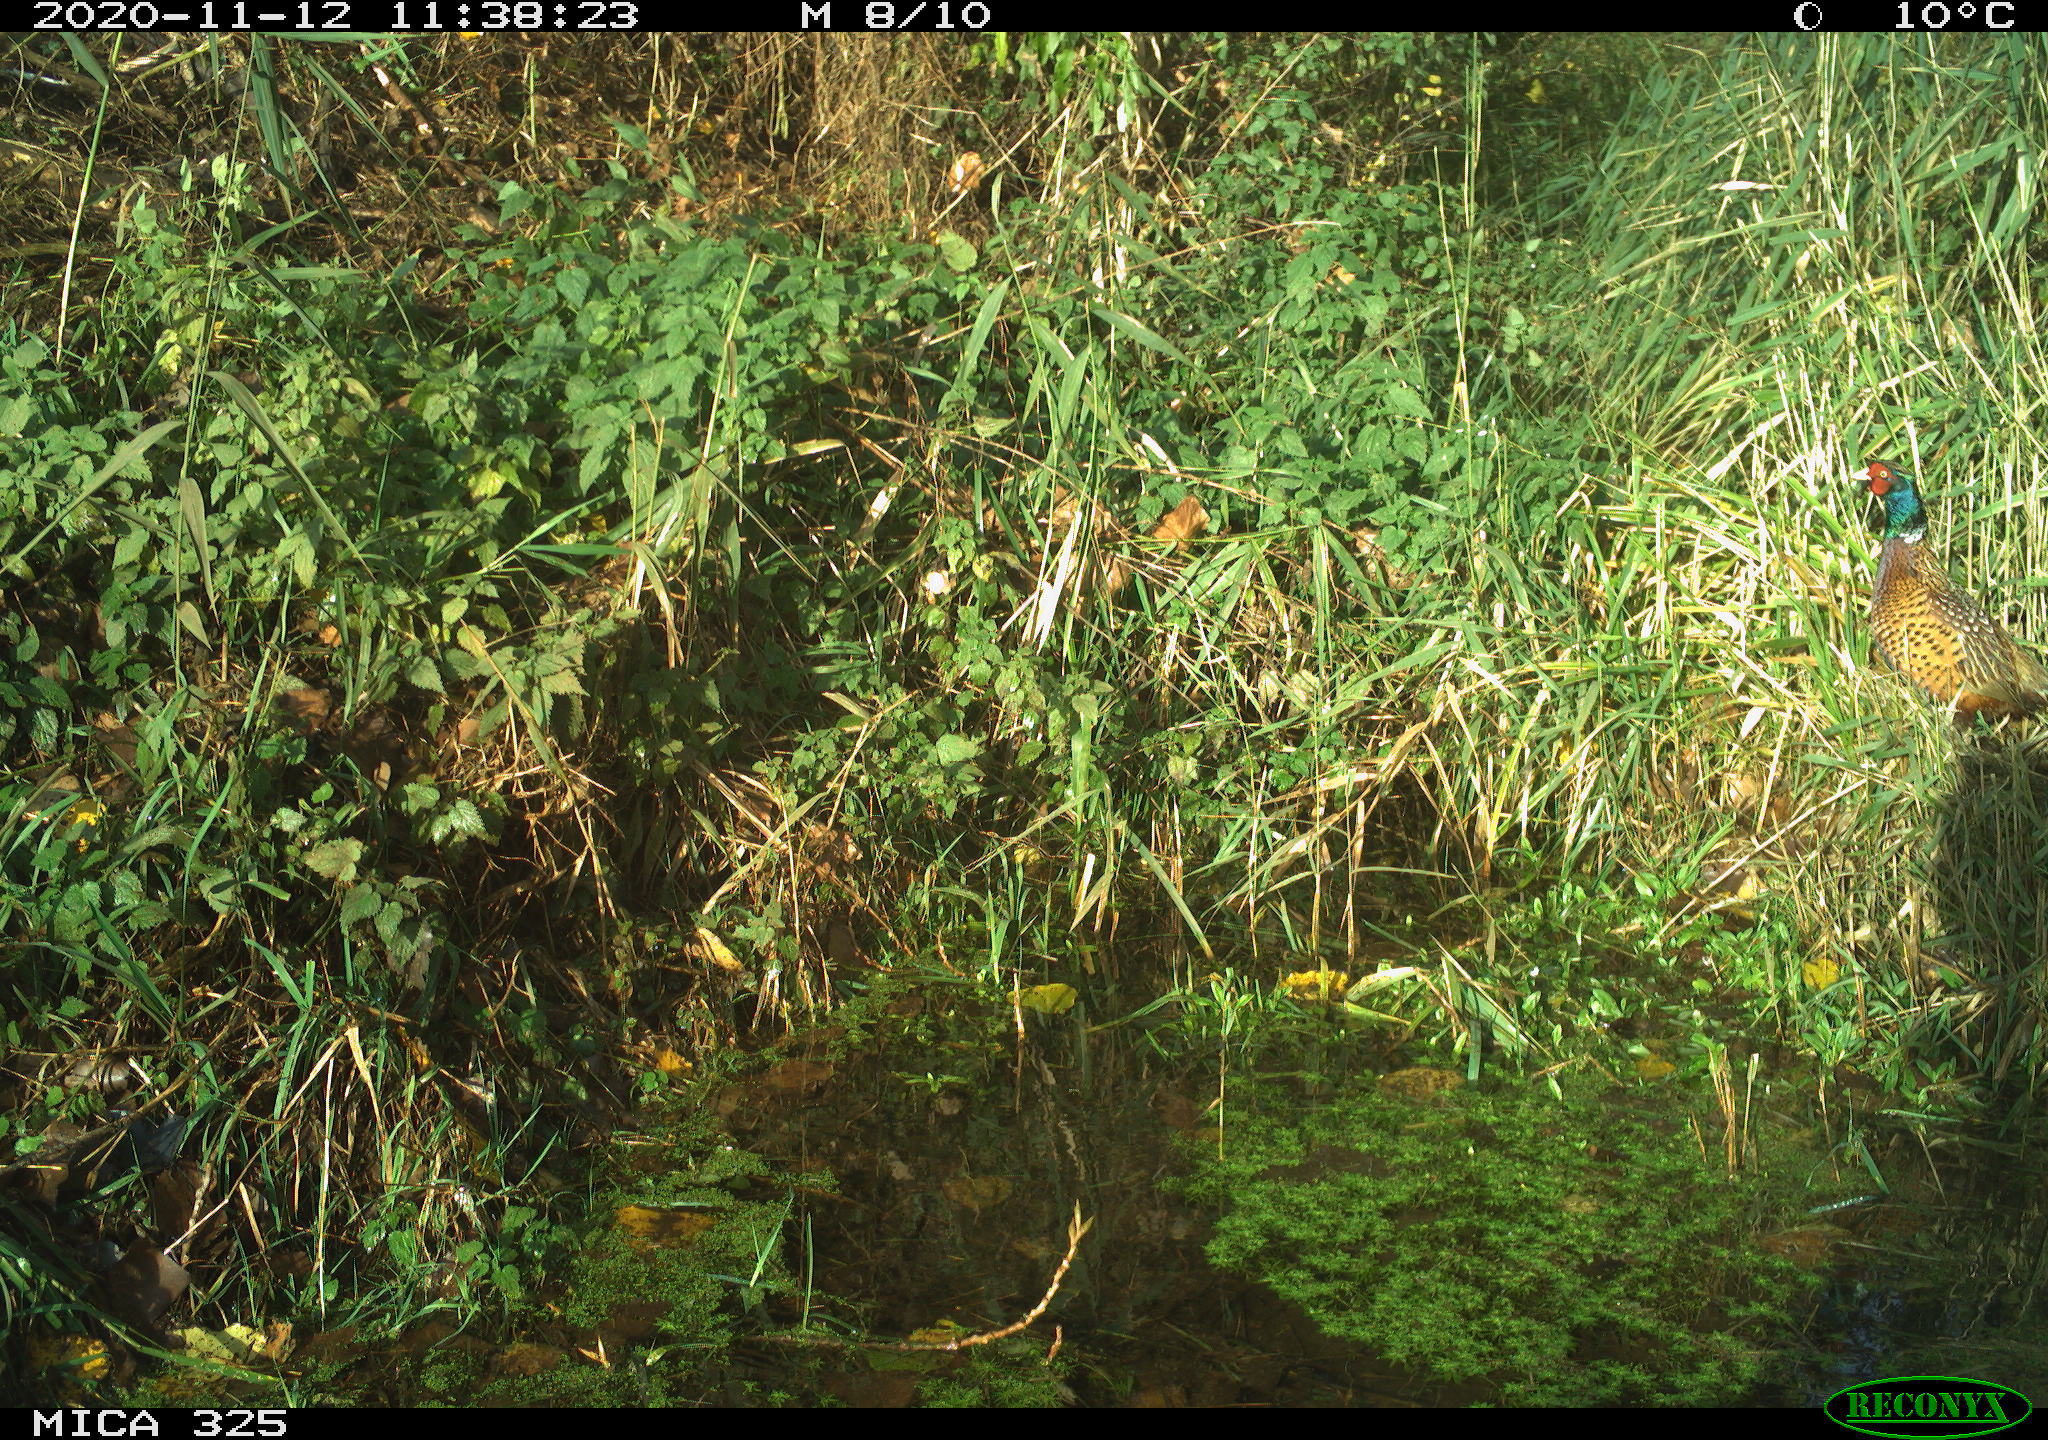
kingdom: Animalia
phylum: Chordata
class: Aves
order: Galliformes
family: Phasianidae
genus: Phasianus
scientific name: Phasianus colchicus
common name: Common pheasant
